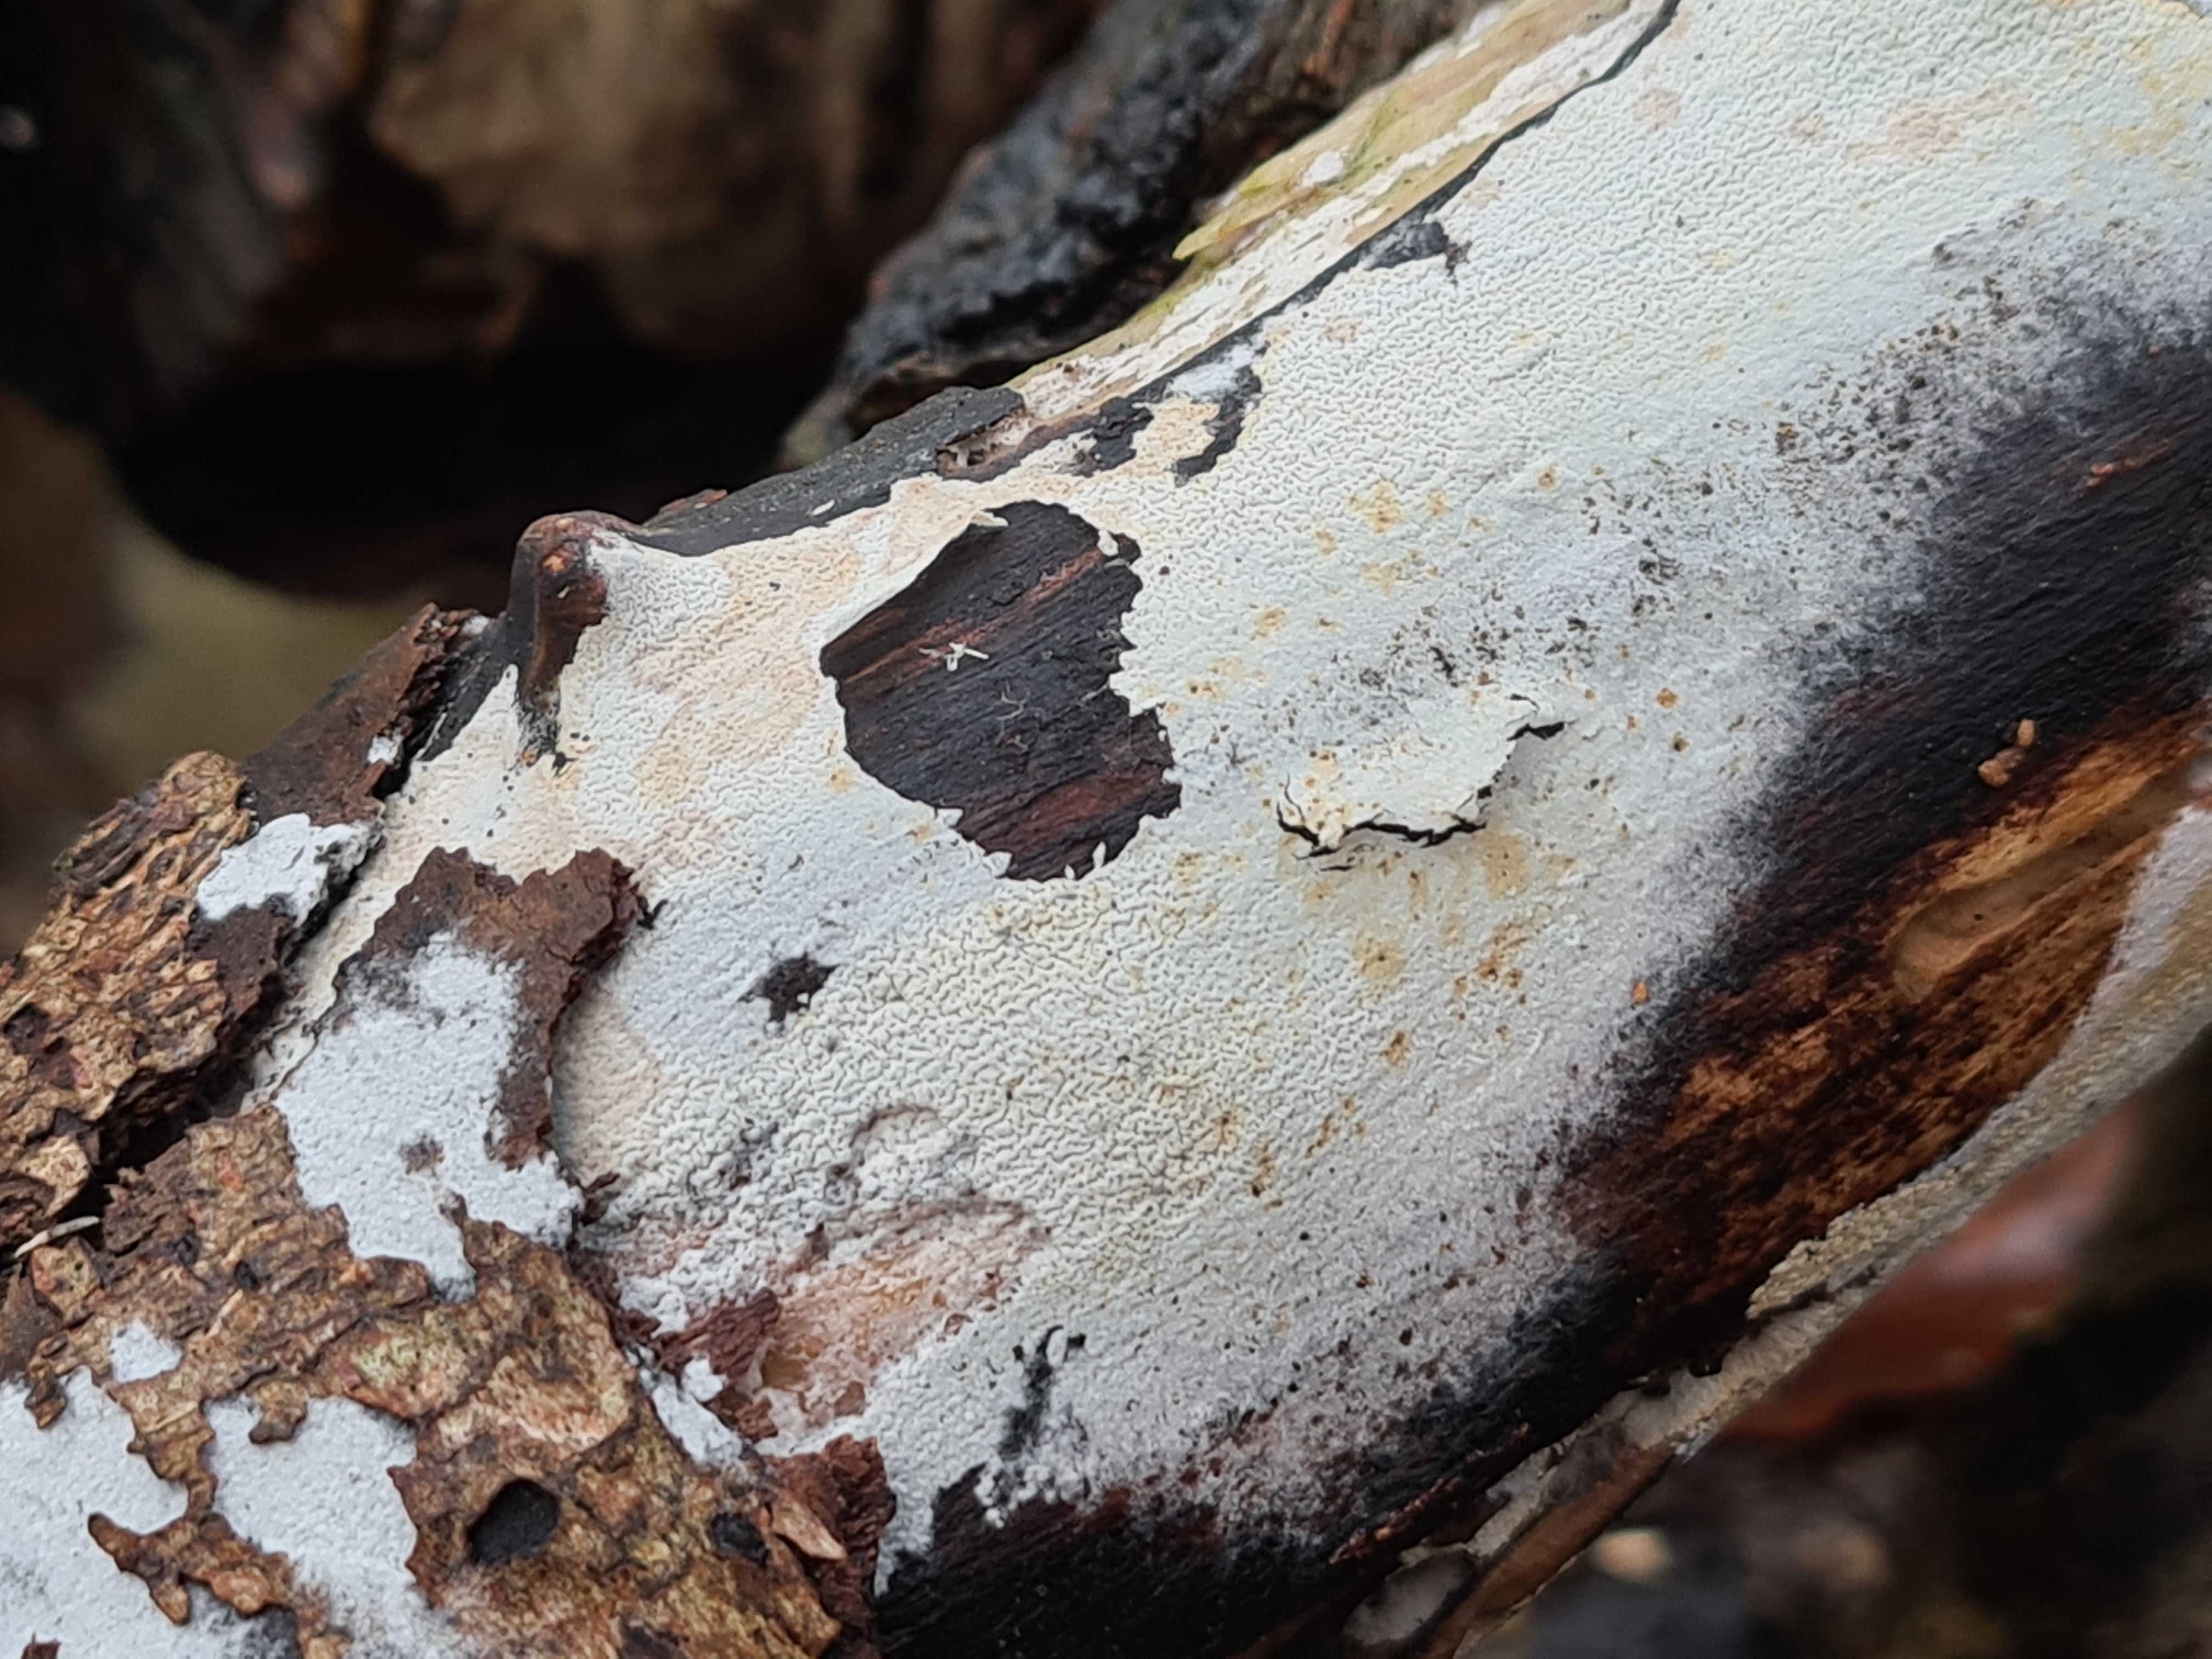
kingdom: Fungi
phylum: Basidiomycota
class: Agaricomycetes
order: Corticiales
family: Corticiaceae
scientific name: Corticiaceae
